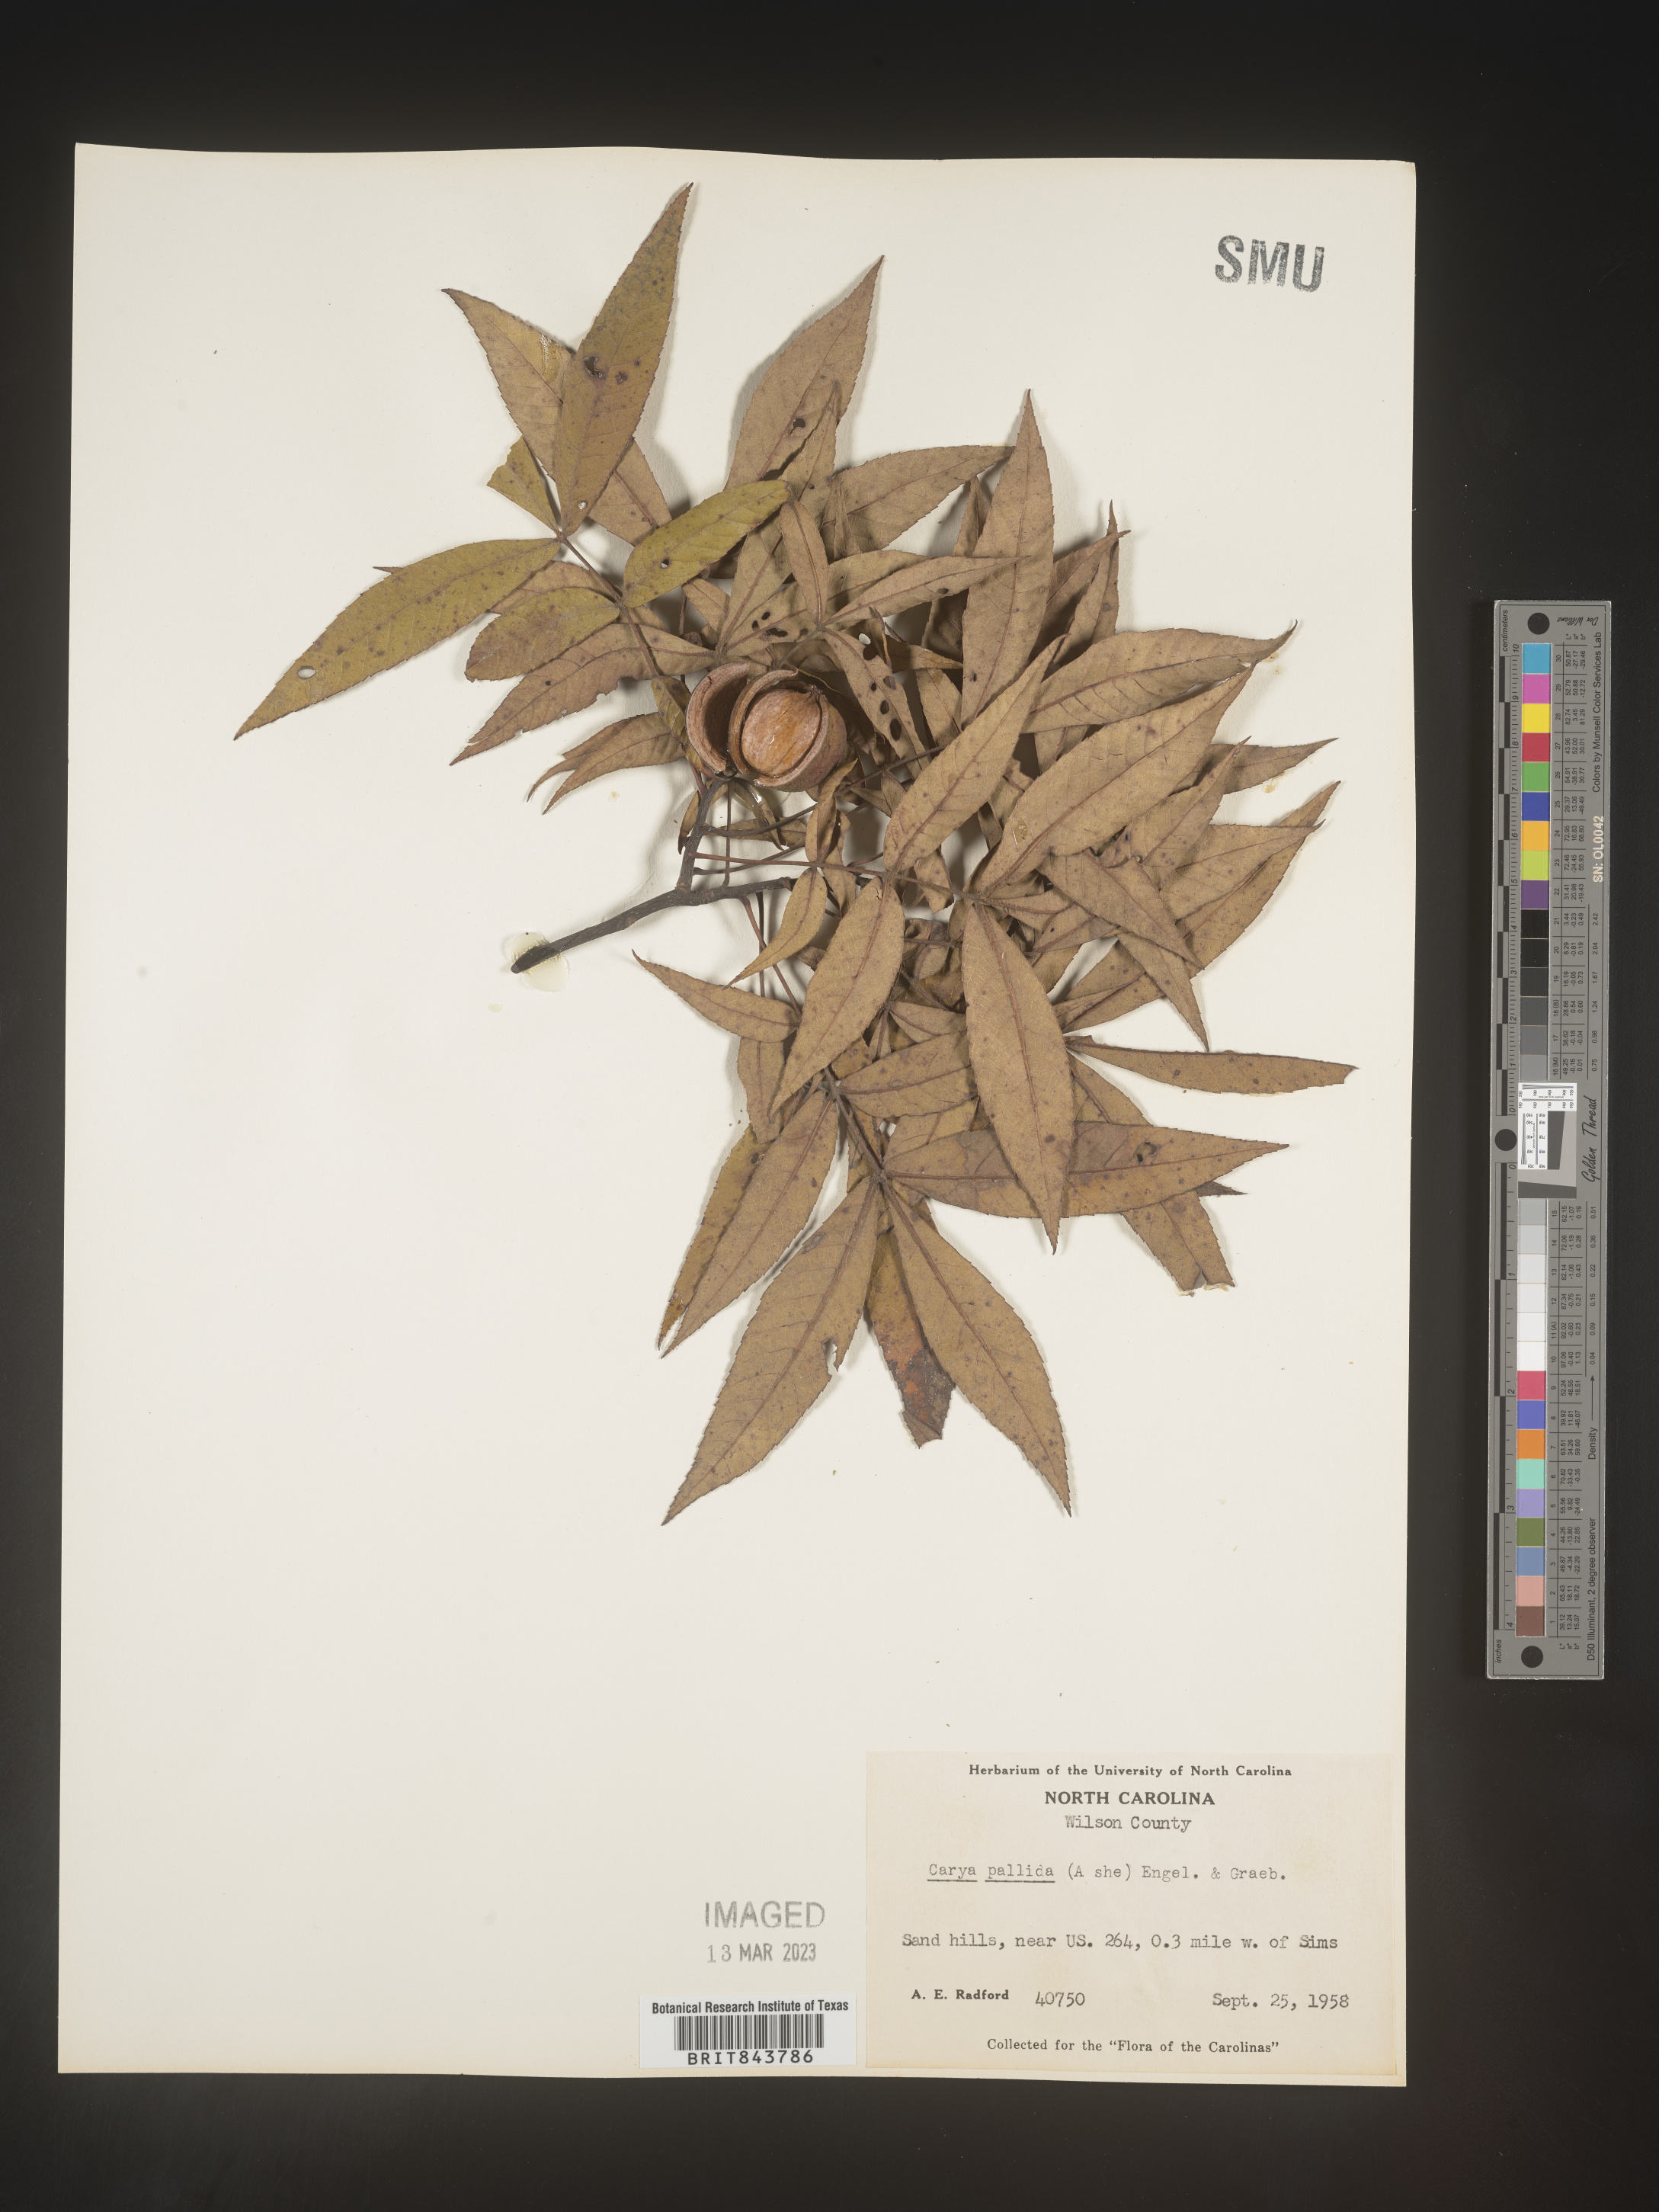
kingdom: Plantae
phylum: Tracheophyta
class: Magnoliopsida
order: Fagales
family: Juglandaceae
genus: Carya
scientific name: Carya pallida
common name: Sand hickory
